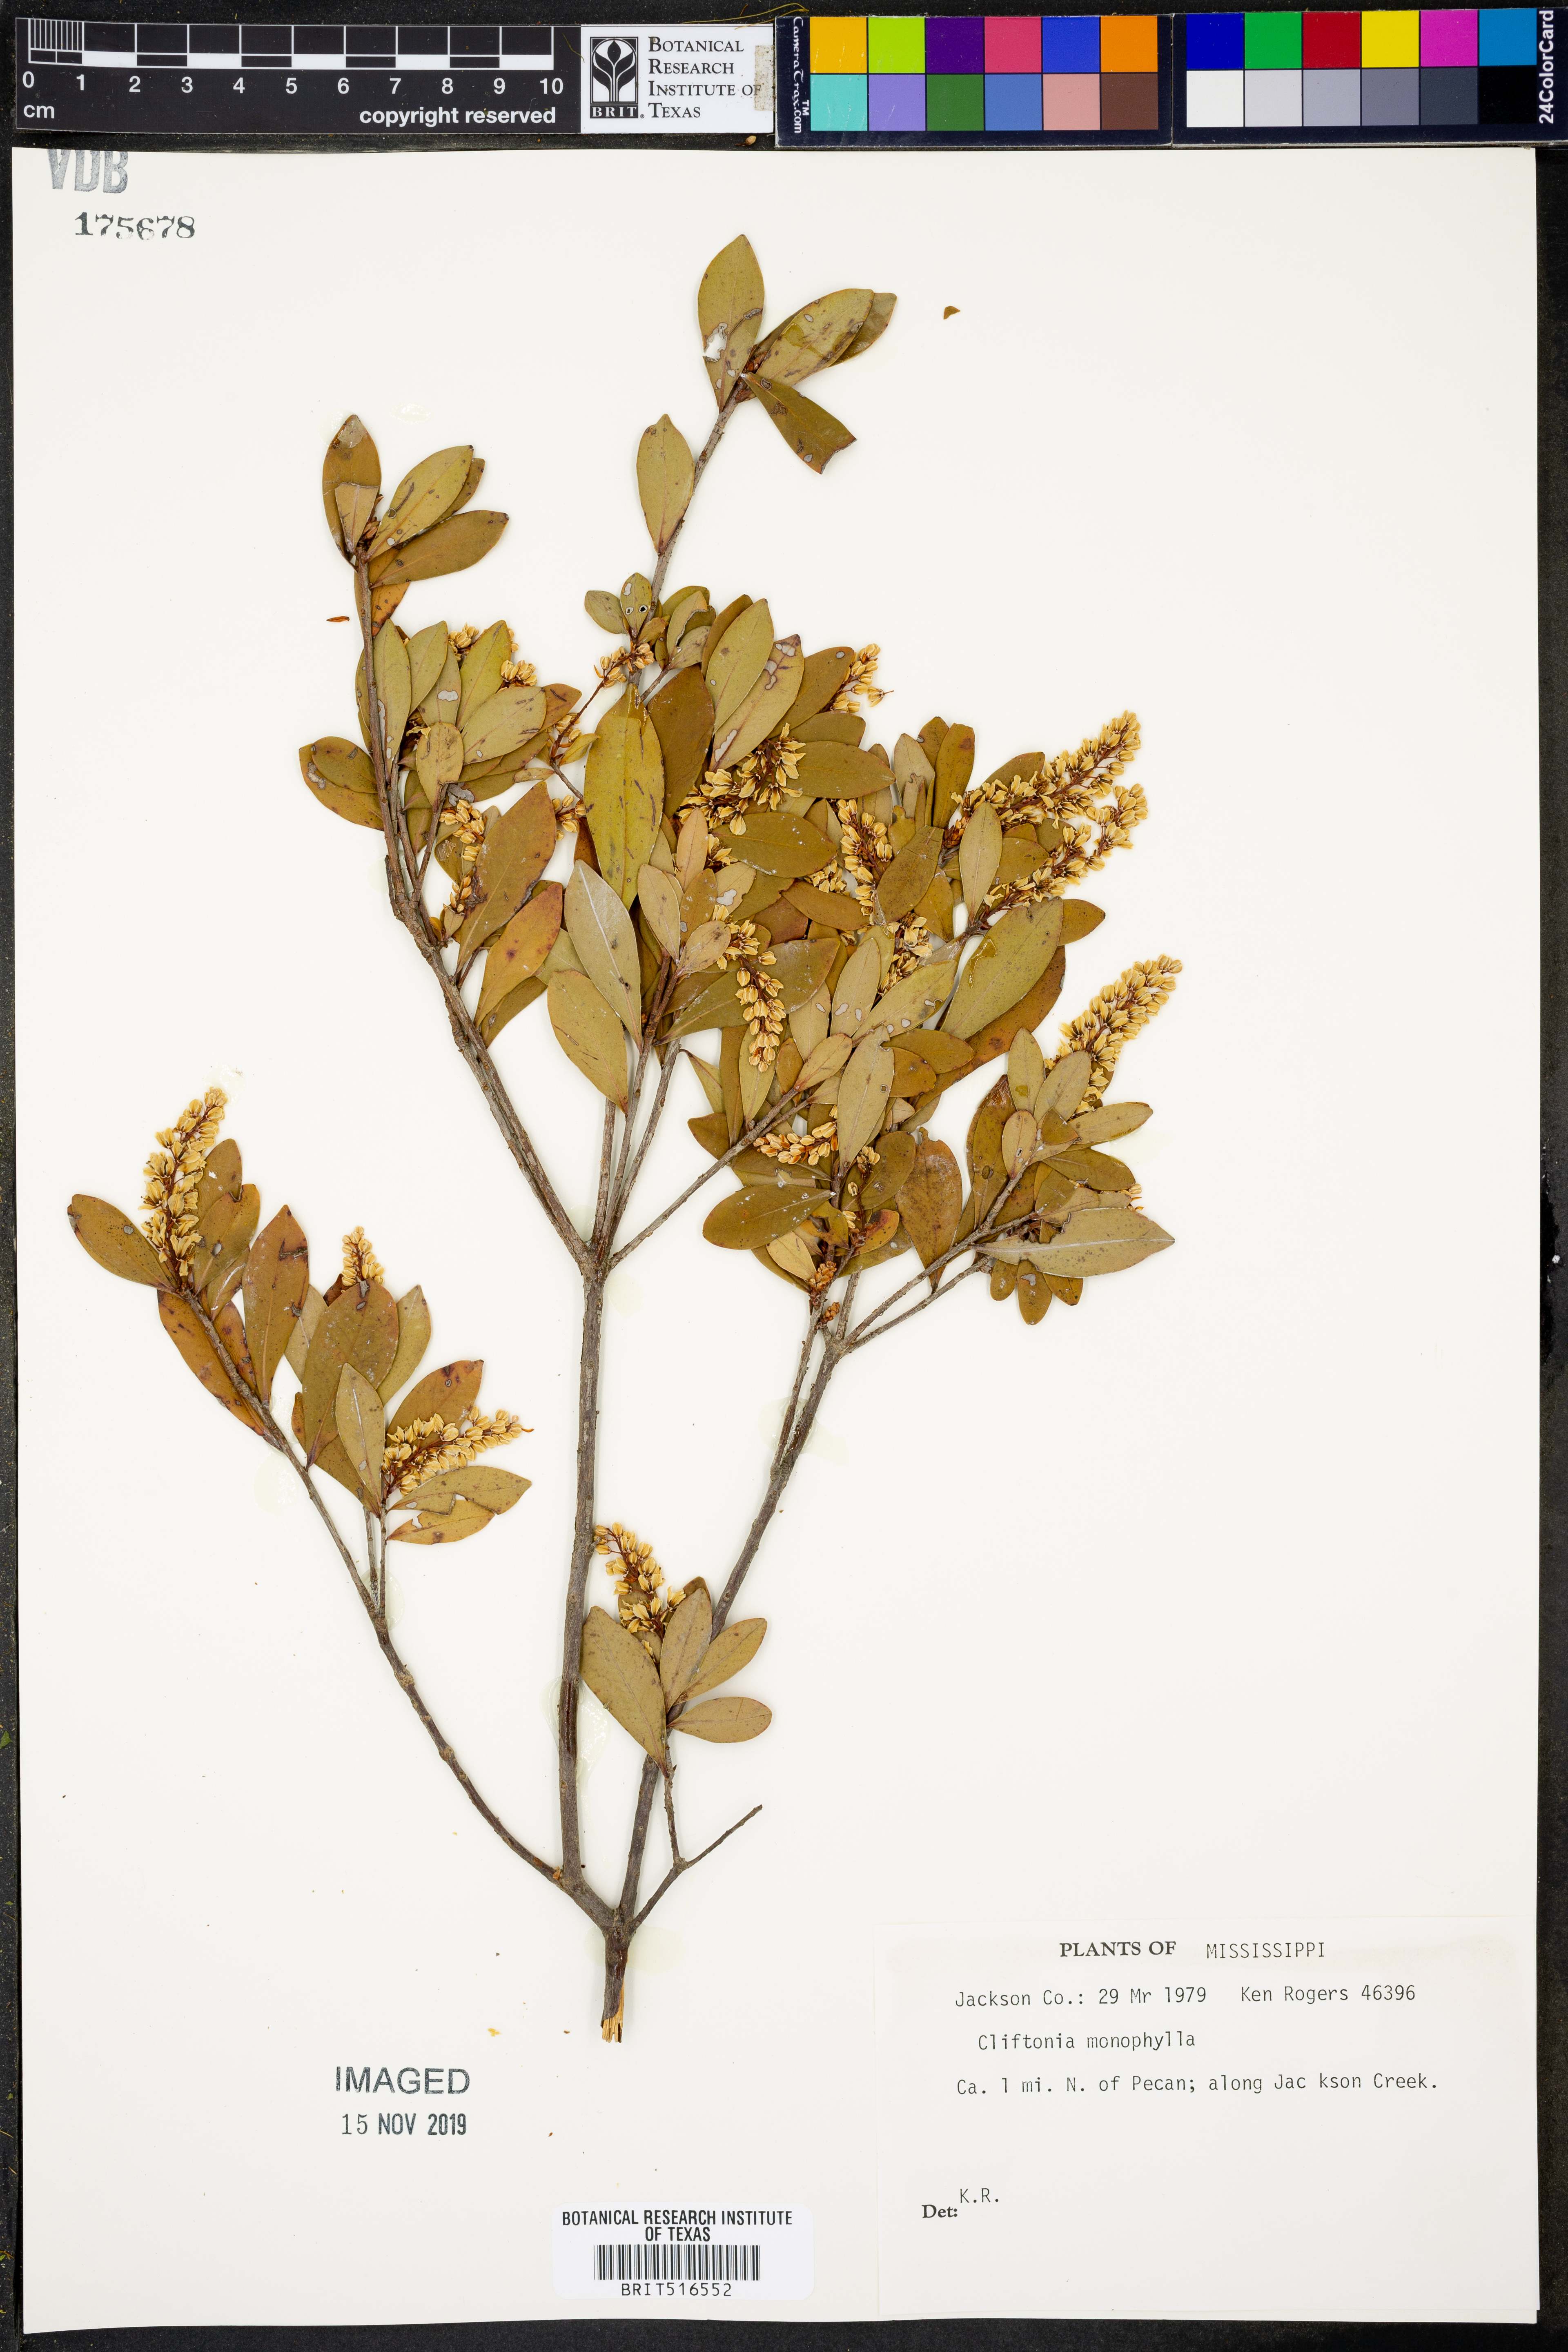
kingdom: Plantae
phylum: Tracheophyta
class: Magnoliopsida
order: Ericales
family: Cyrillaceae
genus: Cliftonia
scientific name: Cliftonia monophylla
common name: Titi
